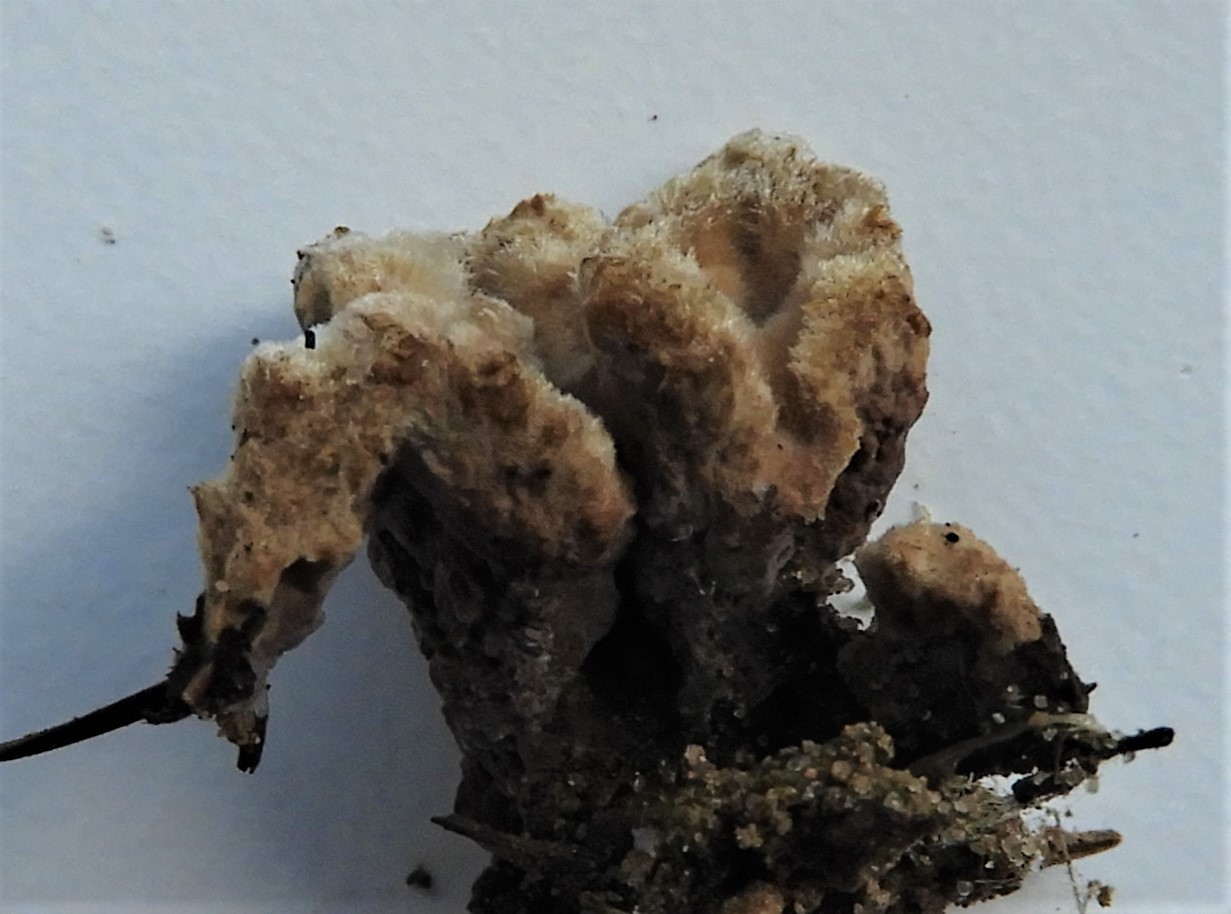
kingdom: Fungi
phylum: Basidiomycota
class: Agaricomycetes
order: Thelephorales
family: Thelephoraceae
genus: Thelephora
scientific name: Thelephora terrestris
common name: fliget frynsesvamp
